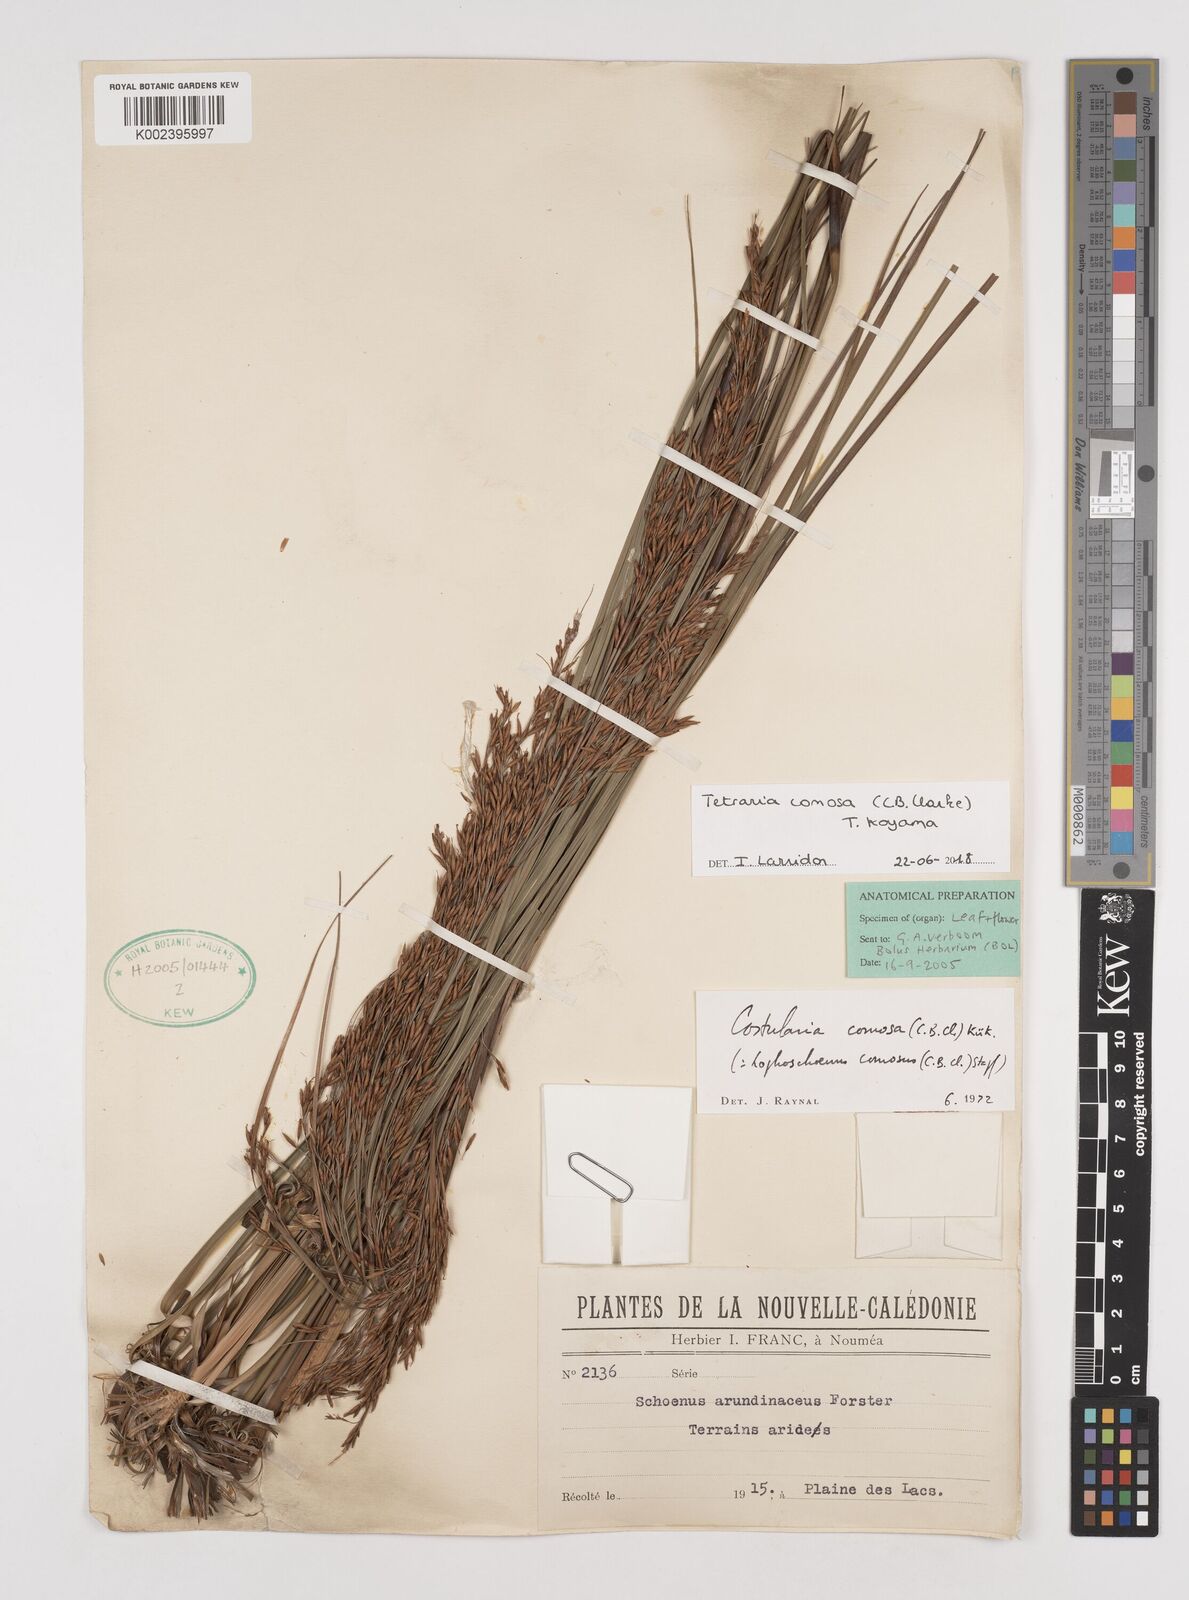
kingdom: Plantae
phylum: Tracheophyta
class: Liliopsida
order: Poales
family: Cyperaceae
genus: Tetraria
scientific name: Tetraria comosa
